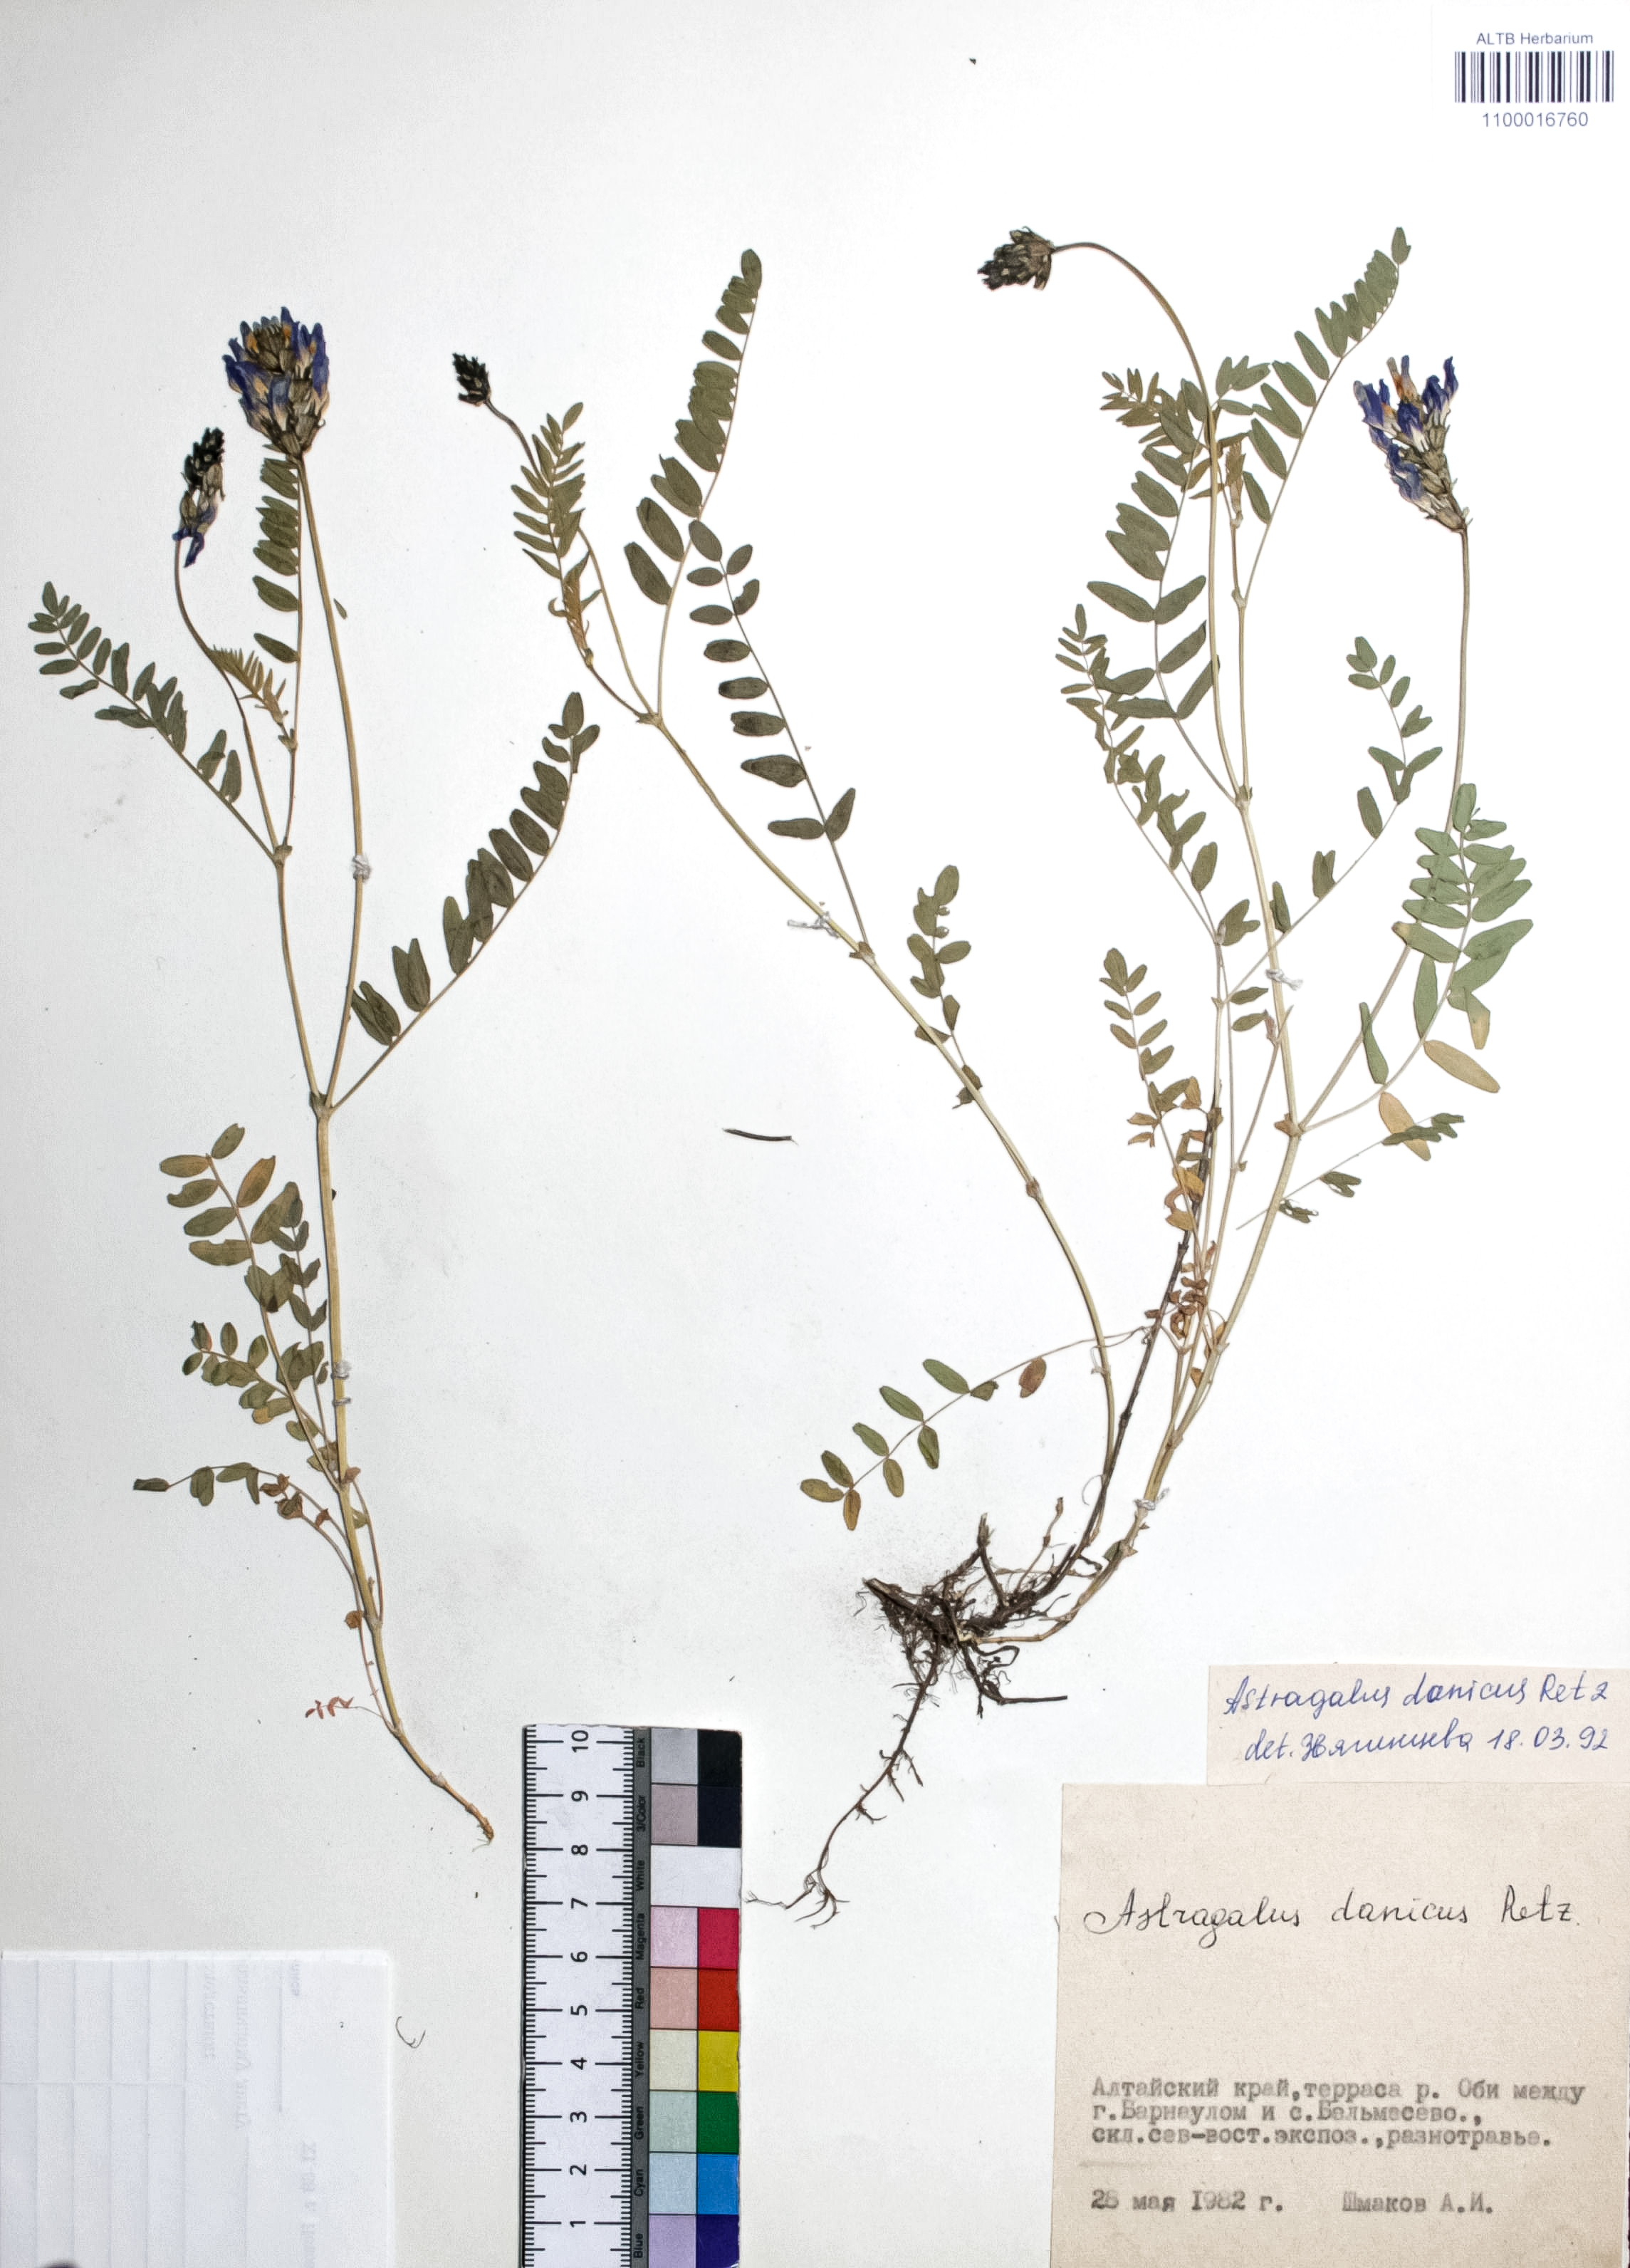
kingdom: Plantae
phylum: Tracheophyta
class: Magnoliopsida
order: Fabales
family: Fabaceae
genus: Astragalus
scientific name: Astragalus danicus
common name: Purple milk-vetch
